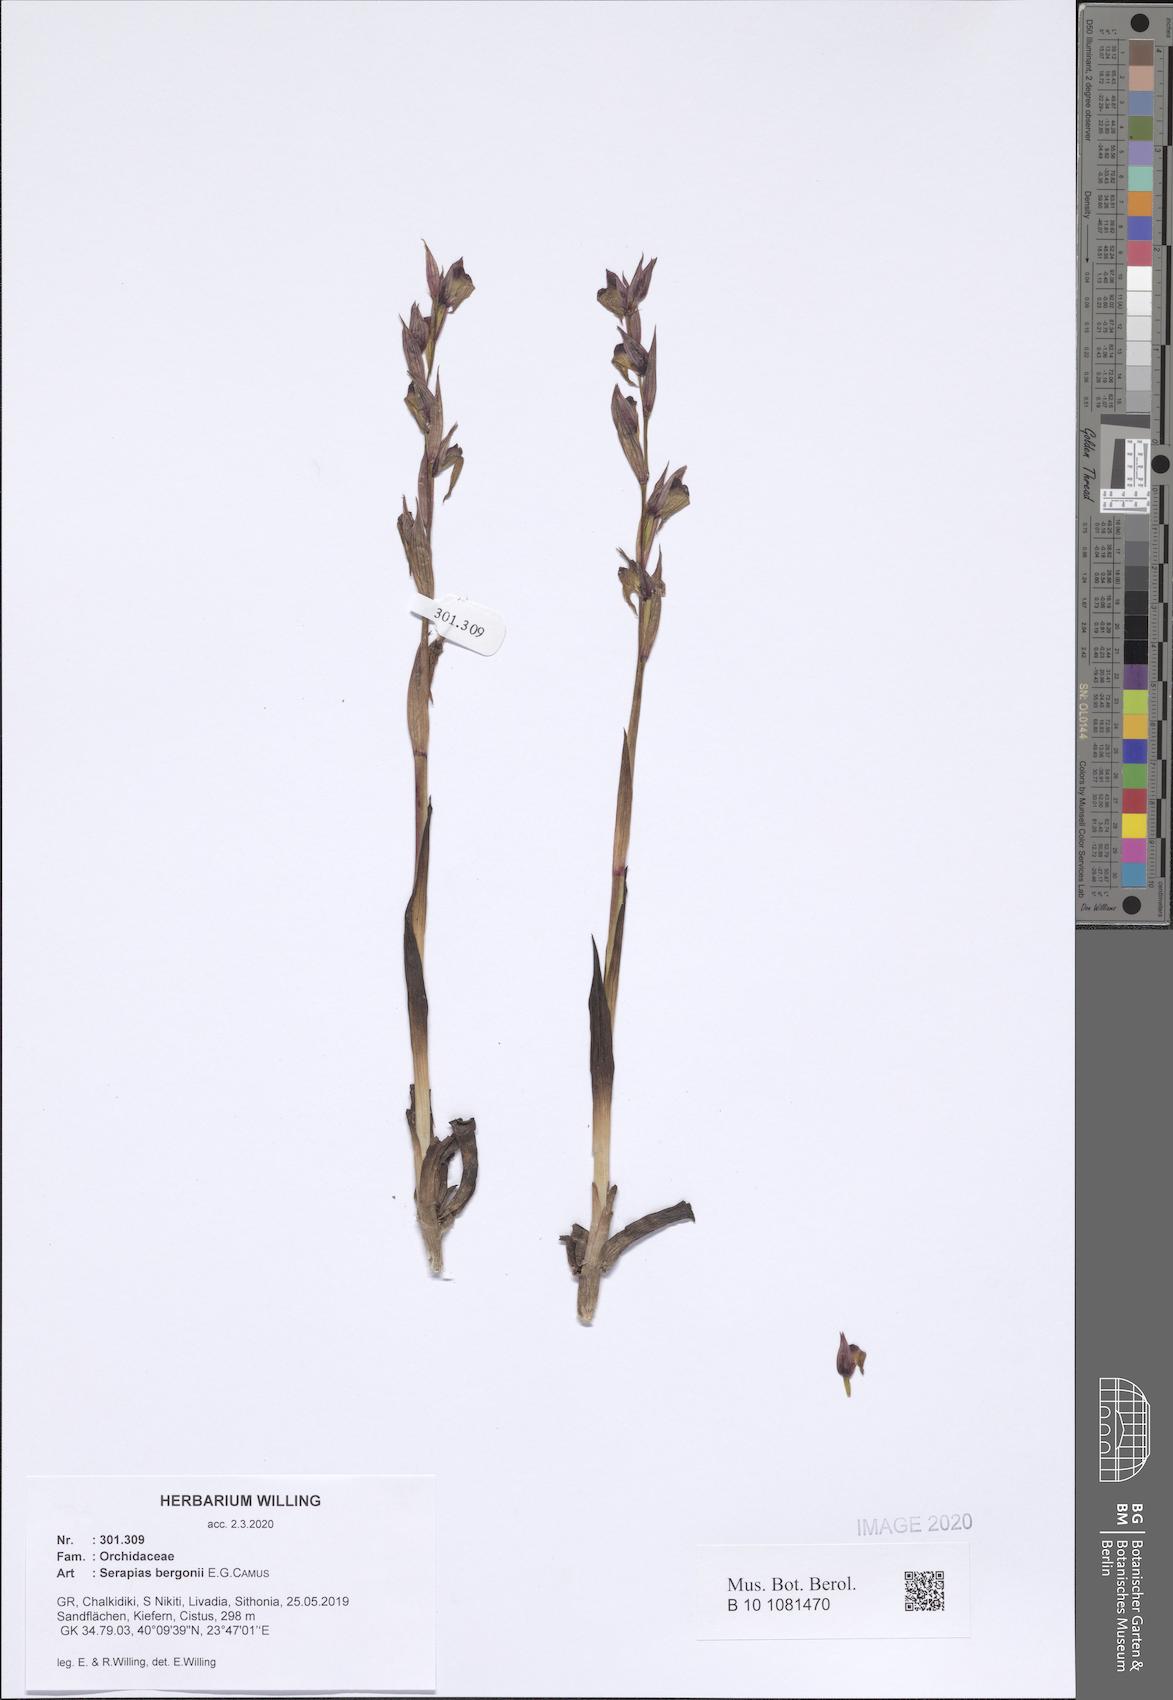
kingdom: Plantae
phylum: Tracheophyta
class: Liliopsida
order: Asparagales
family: Orchidaceae
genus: Serapias
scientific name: Serapias bergonii
